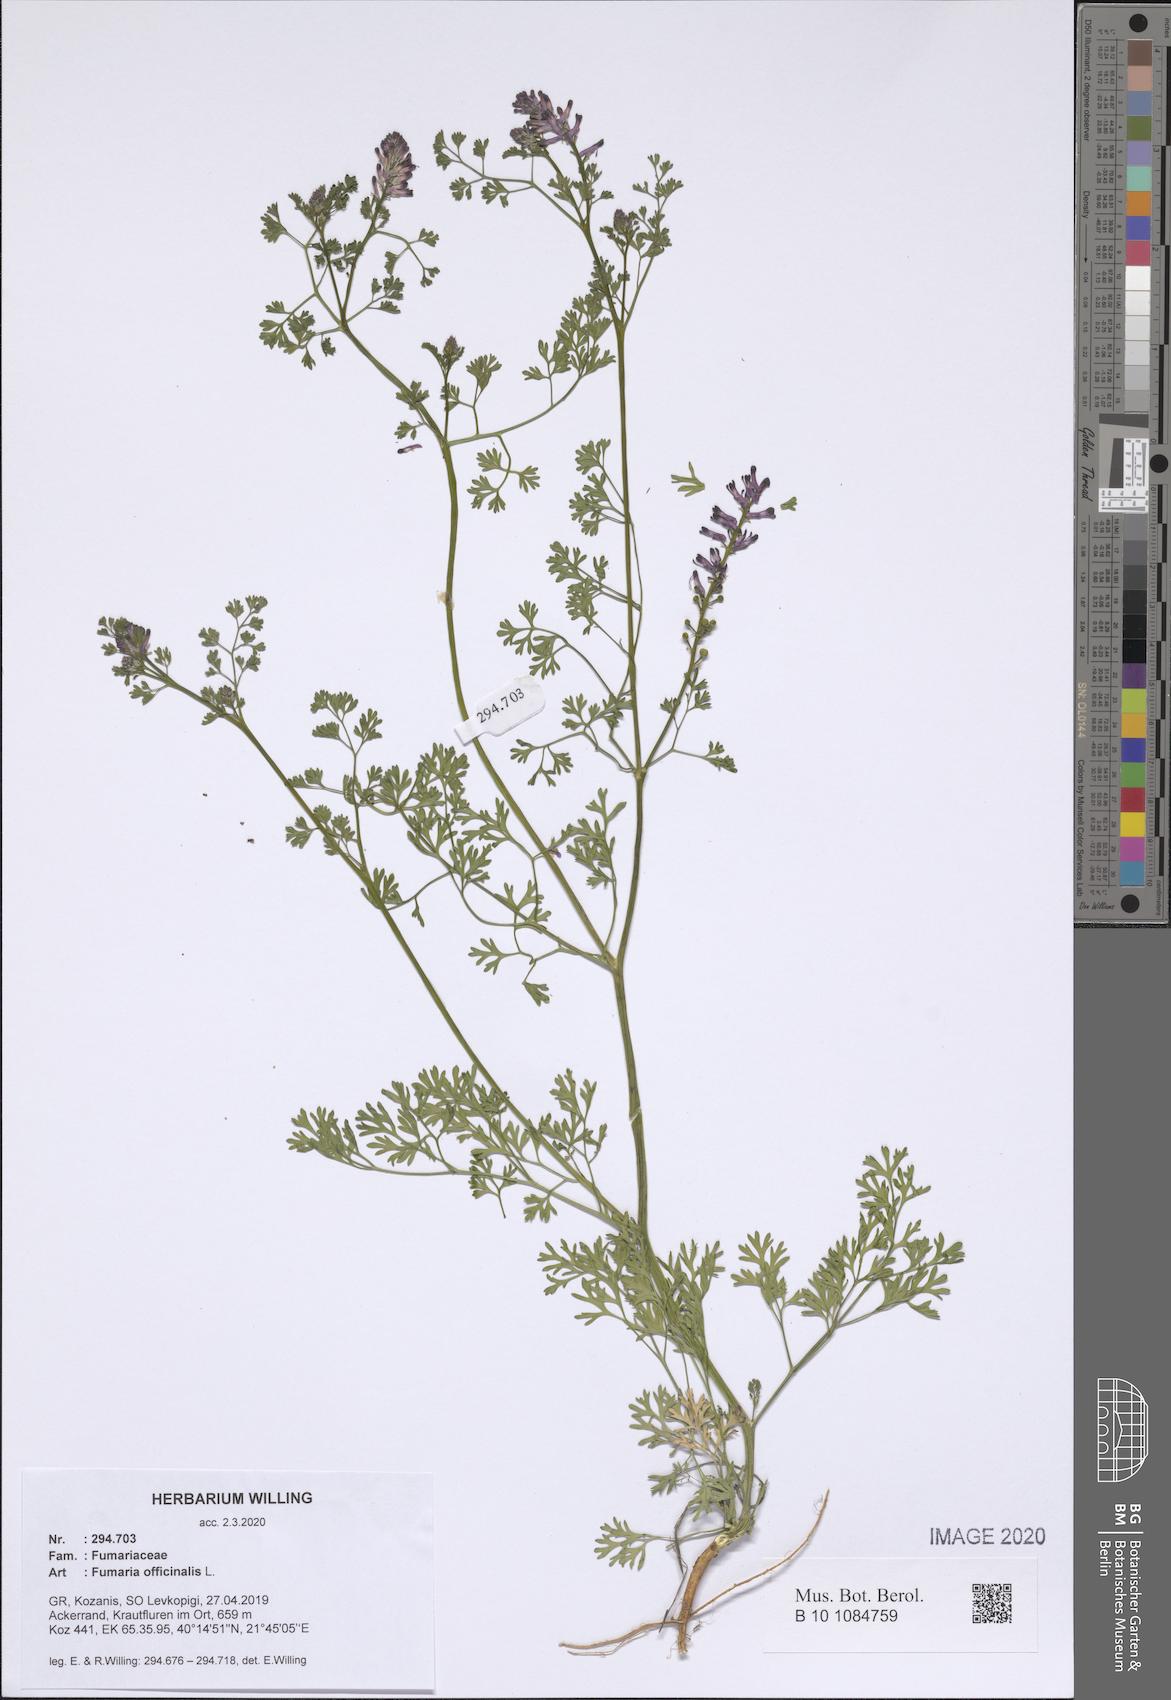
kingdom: Plantae
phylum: Tracheophyta
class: Magnoliopsida
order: Ranunculales
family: Papaveraceae
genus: Fumaria
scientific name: Fumaria officinalis
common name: Common fumitory
